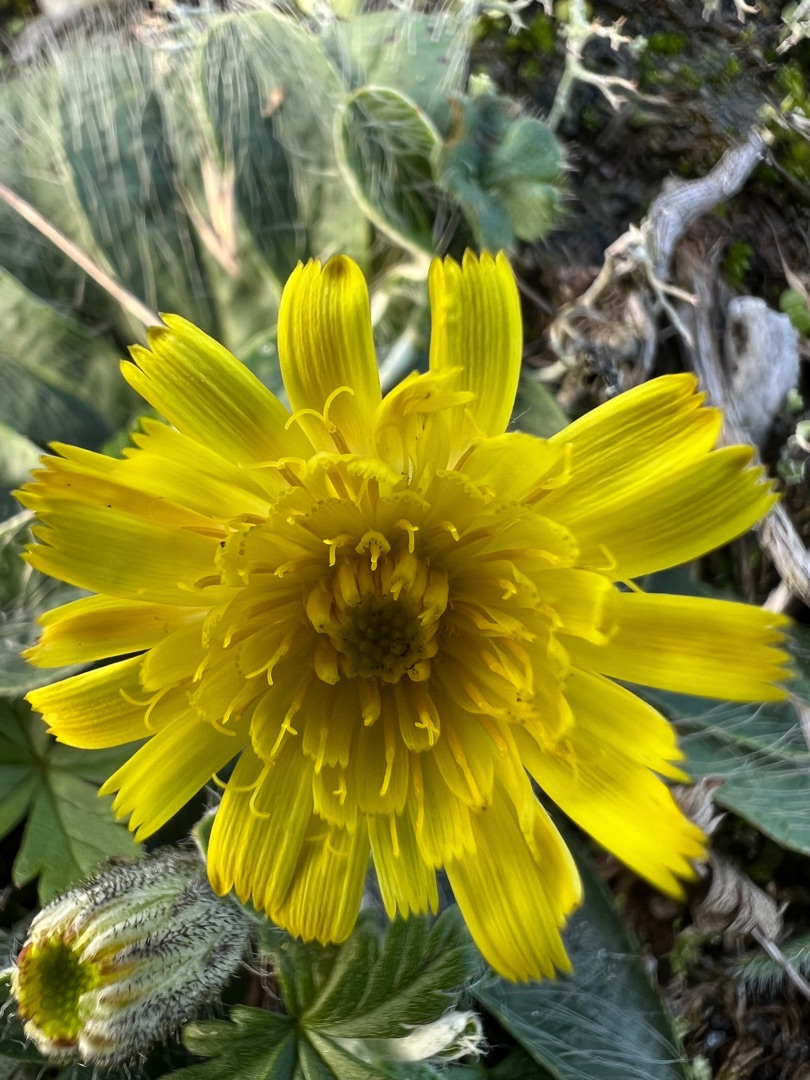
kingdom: Plantae
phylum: Tracheophyta
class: Magnoliopsida
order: Asterales
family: Asteraceae
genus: Pilosella
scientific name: Pilosella officinarum
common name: Håret høgeurt
